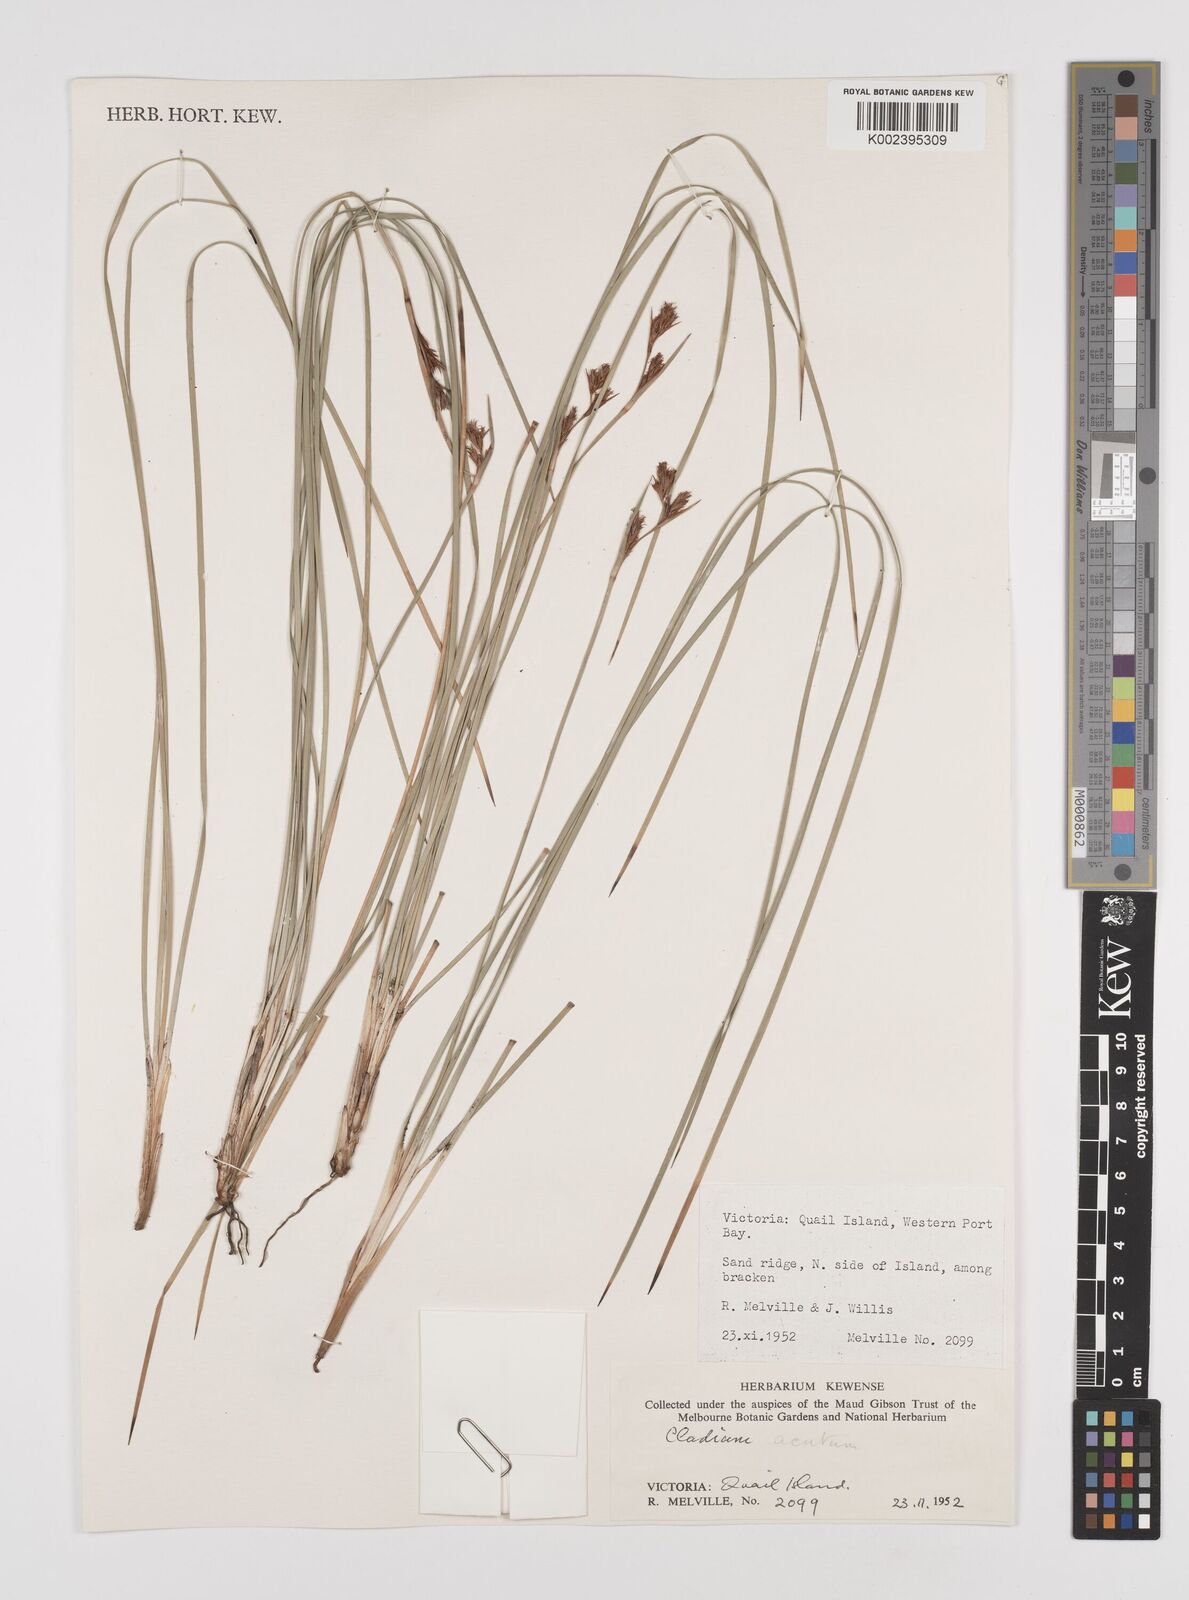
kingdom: Plantae
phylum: Tracheophyta
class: Liliopsida
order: Poales
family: Cyperaceae
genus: Machaerina
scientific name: Machaerina acuta
